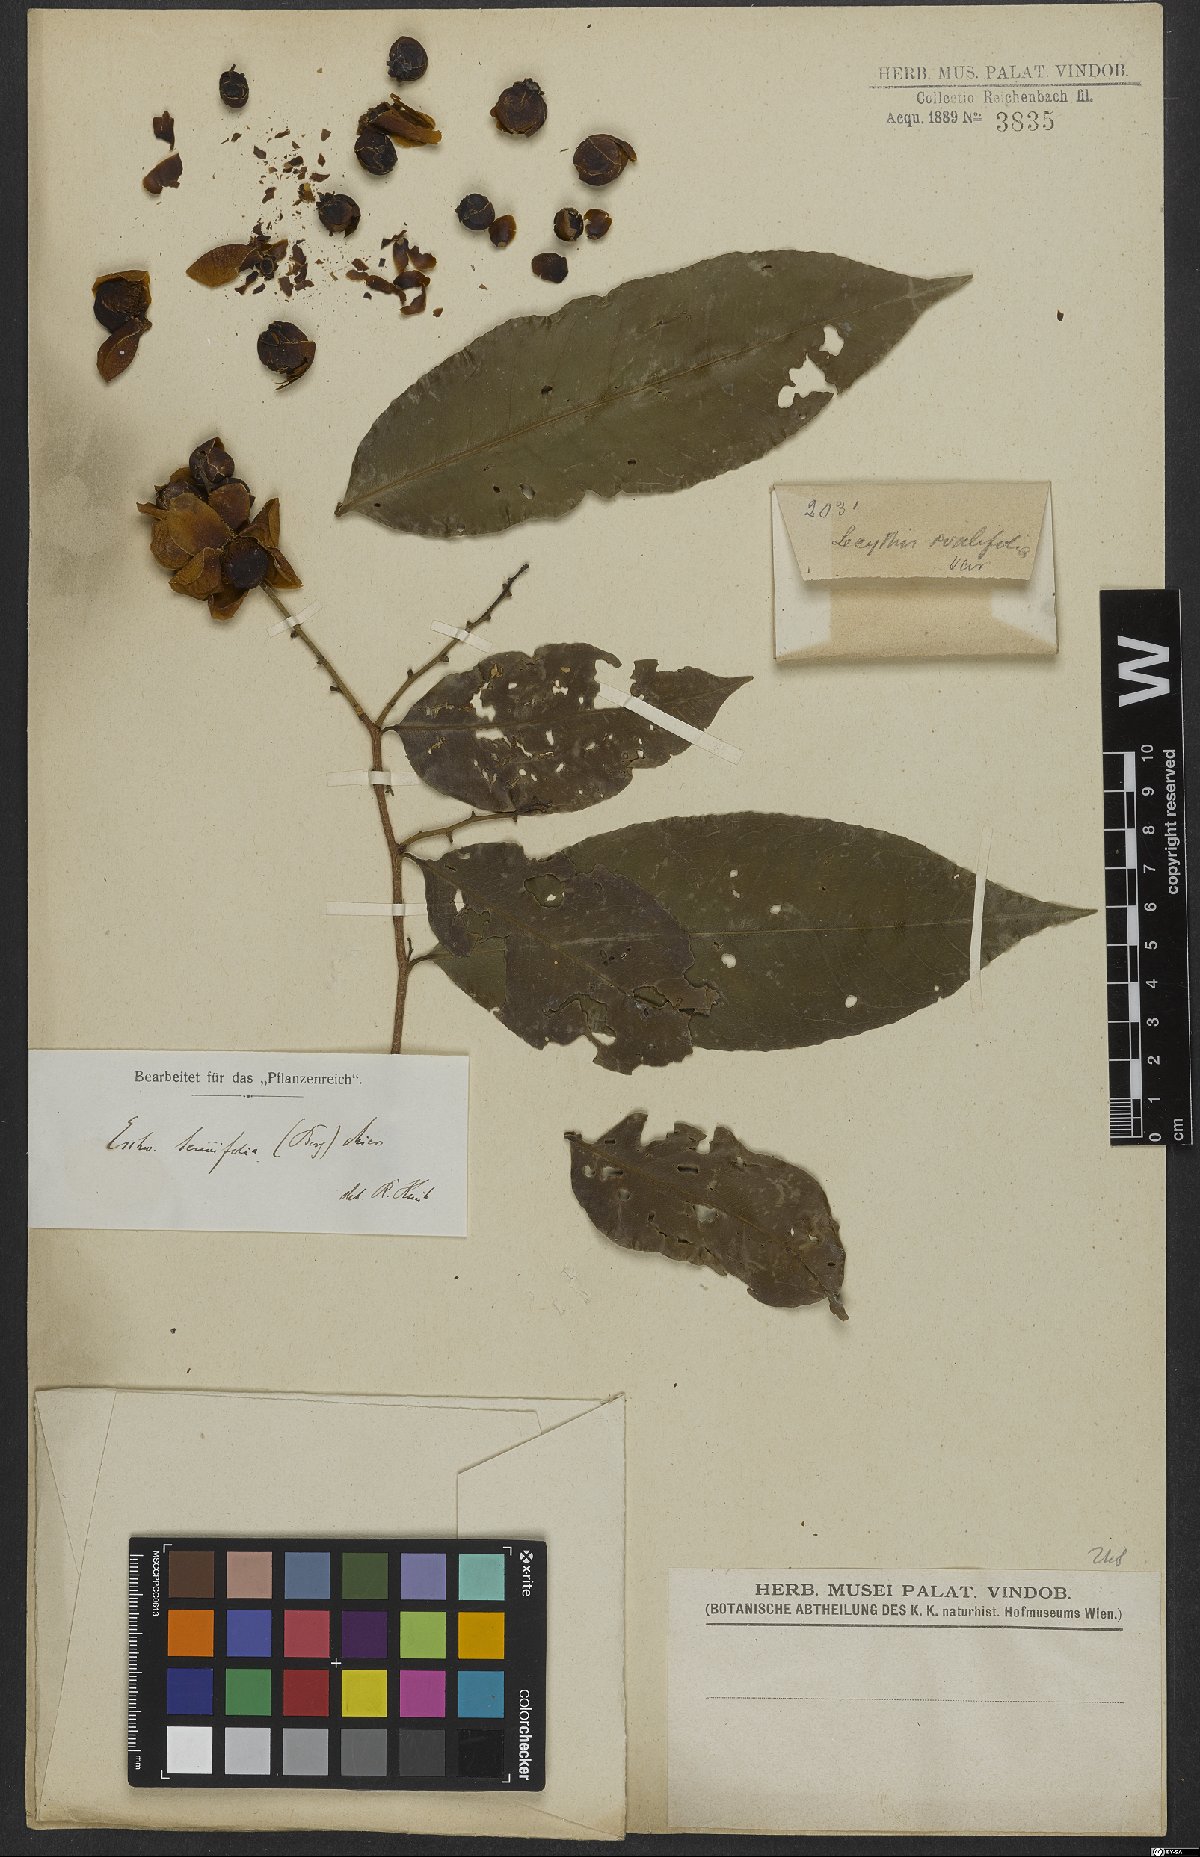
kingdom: Plantae
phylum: Tracheophyta
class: Magnoliopsida
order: Ericales
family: Lecythidaceae
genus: Eschweilera
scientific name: Eschweilera tenuifolia
